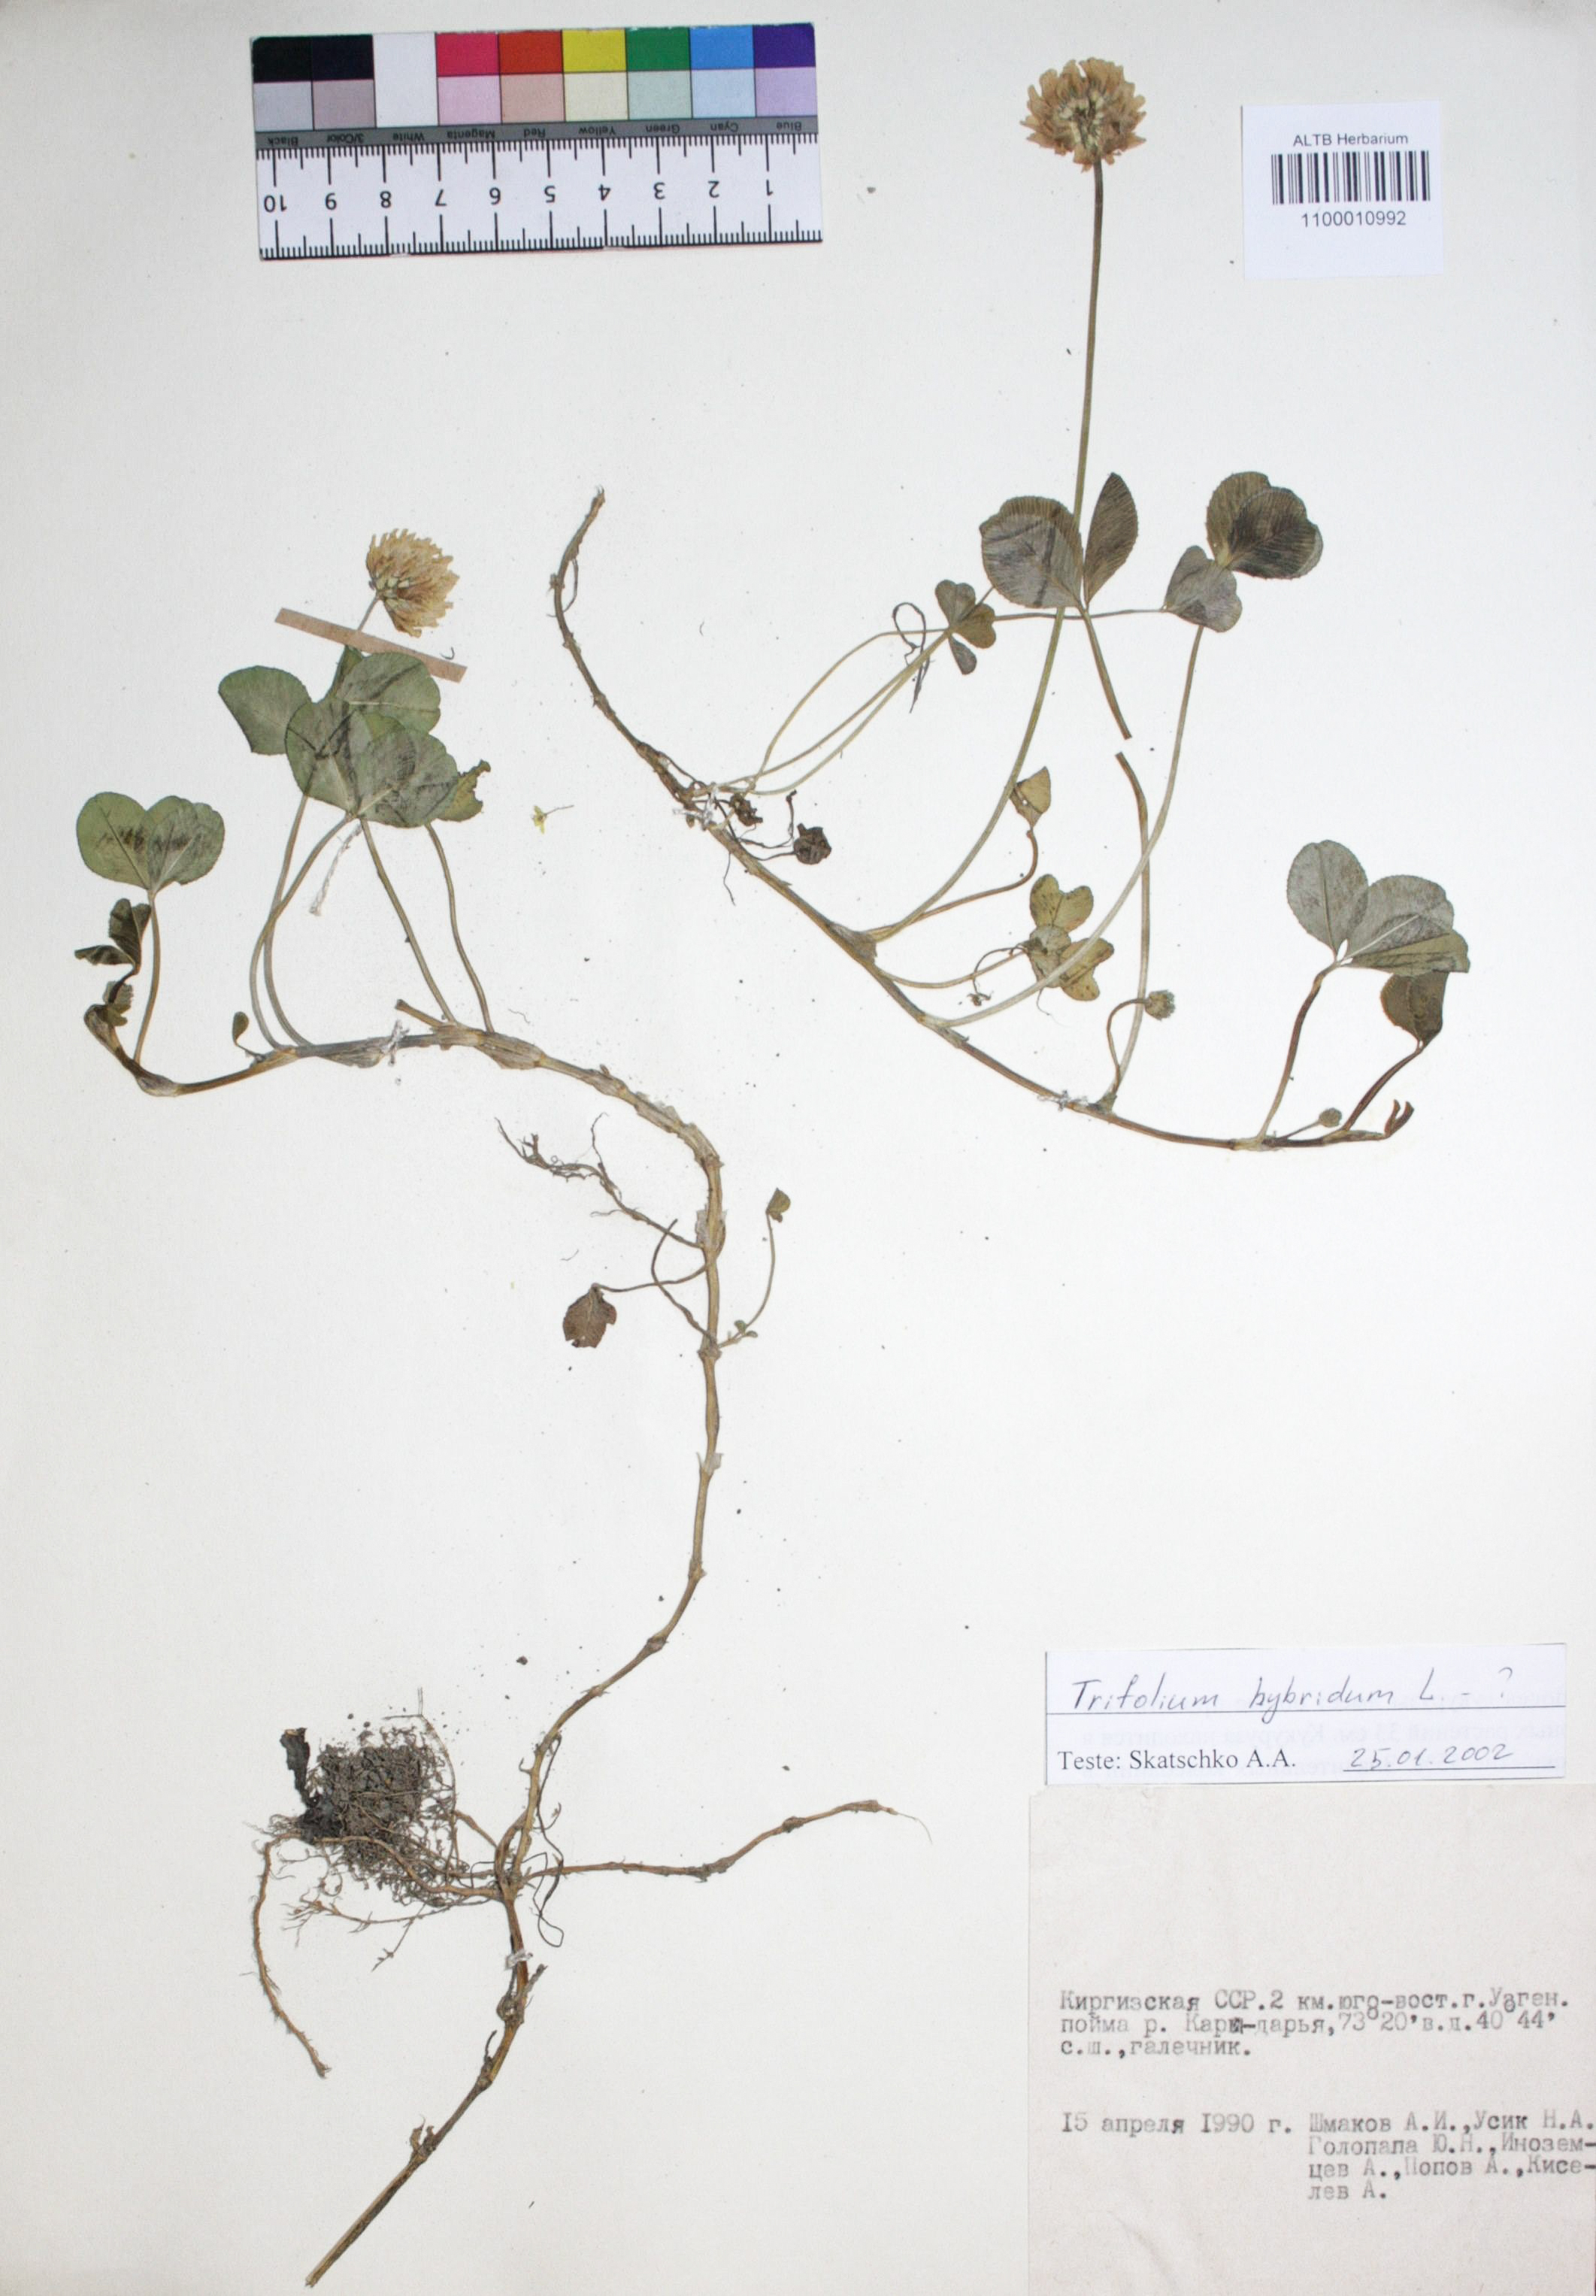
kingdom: Plantae
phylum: Tracheophyta
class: Magnoliopsida
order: Fabales
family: Fabaceae
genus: Trifolium
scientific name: Trifolium hybridum
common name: Alsike clover
